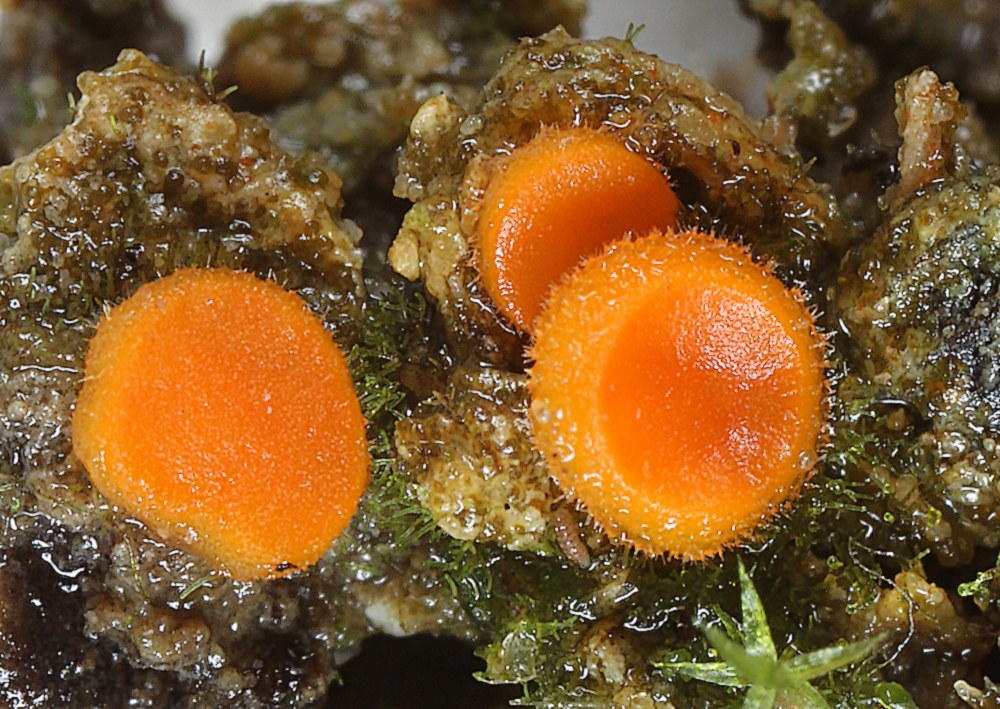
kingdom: Fungi
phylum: Ascomycota
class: Pezizomycetes
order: Pezizales
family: Pyronemataceae
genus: Cheilymenia
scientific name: Cheilymenia crucipila
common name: orange hårbæger
